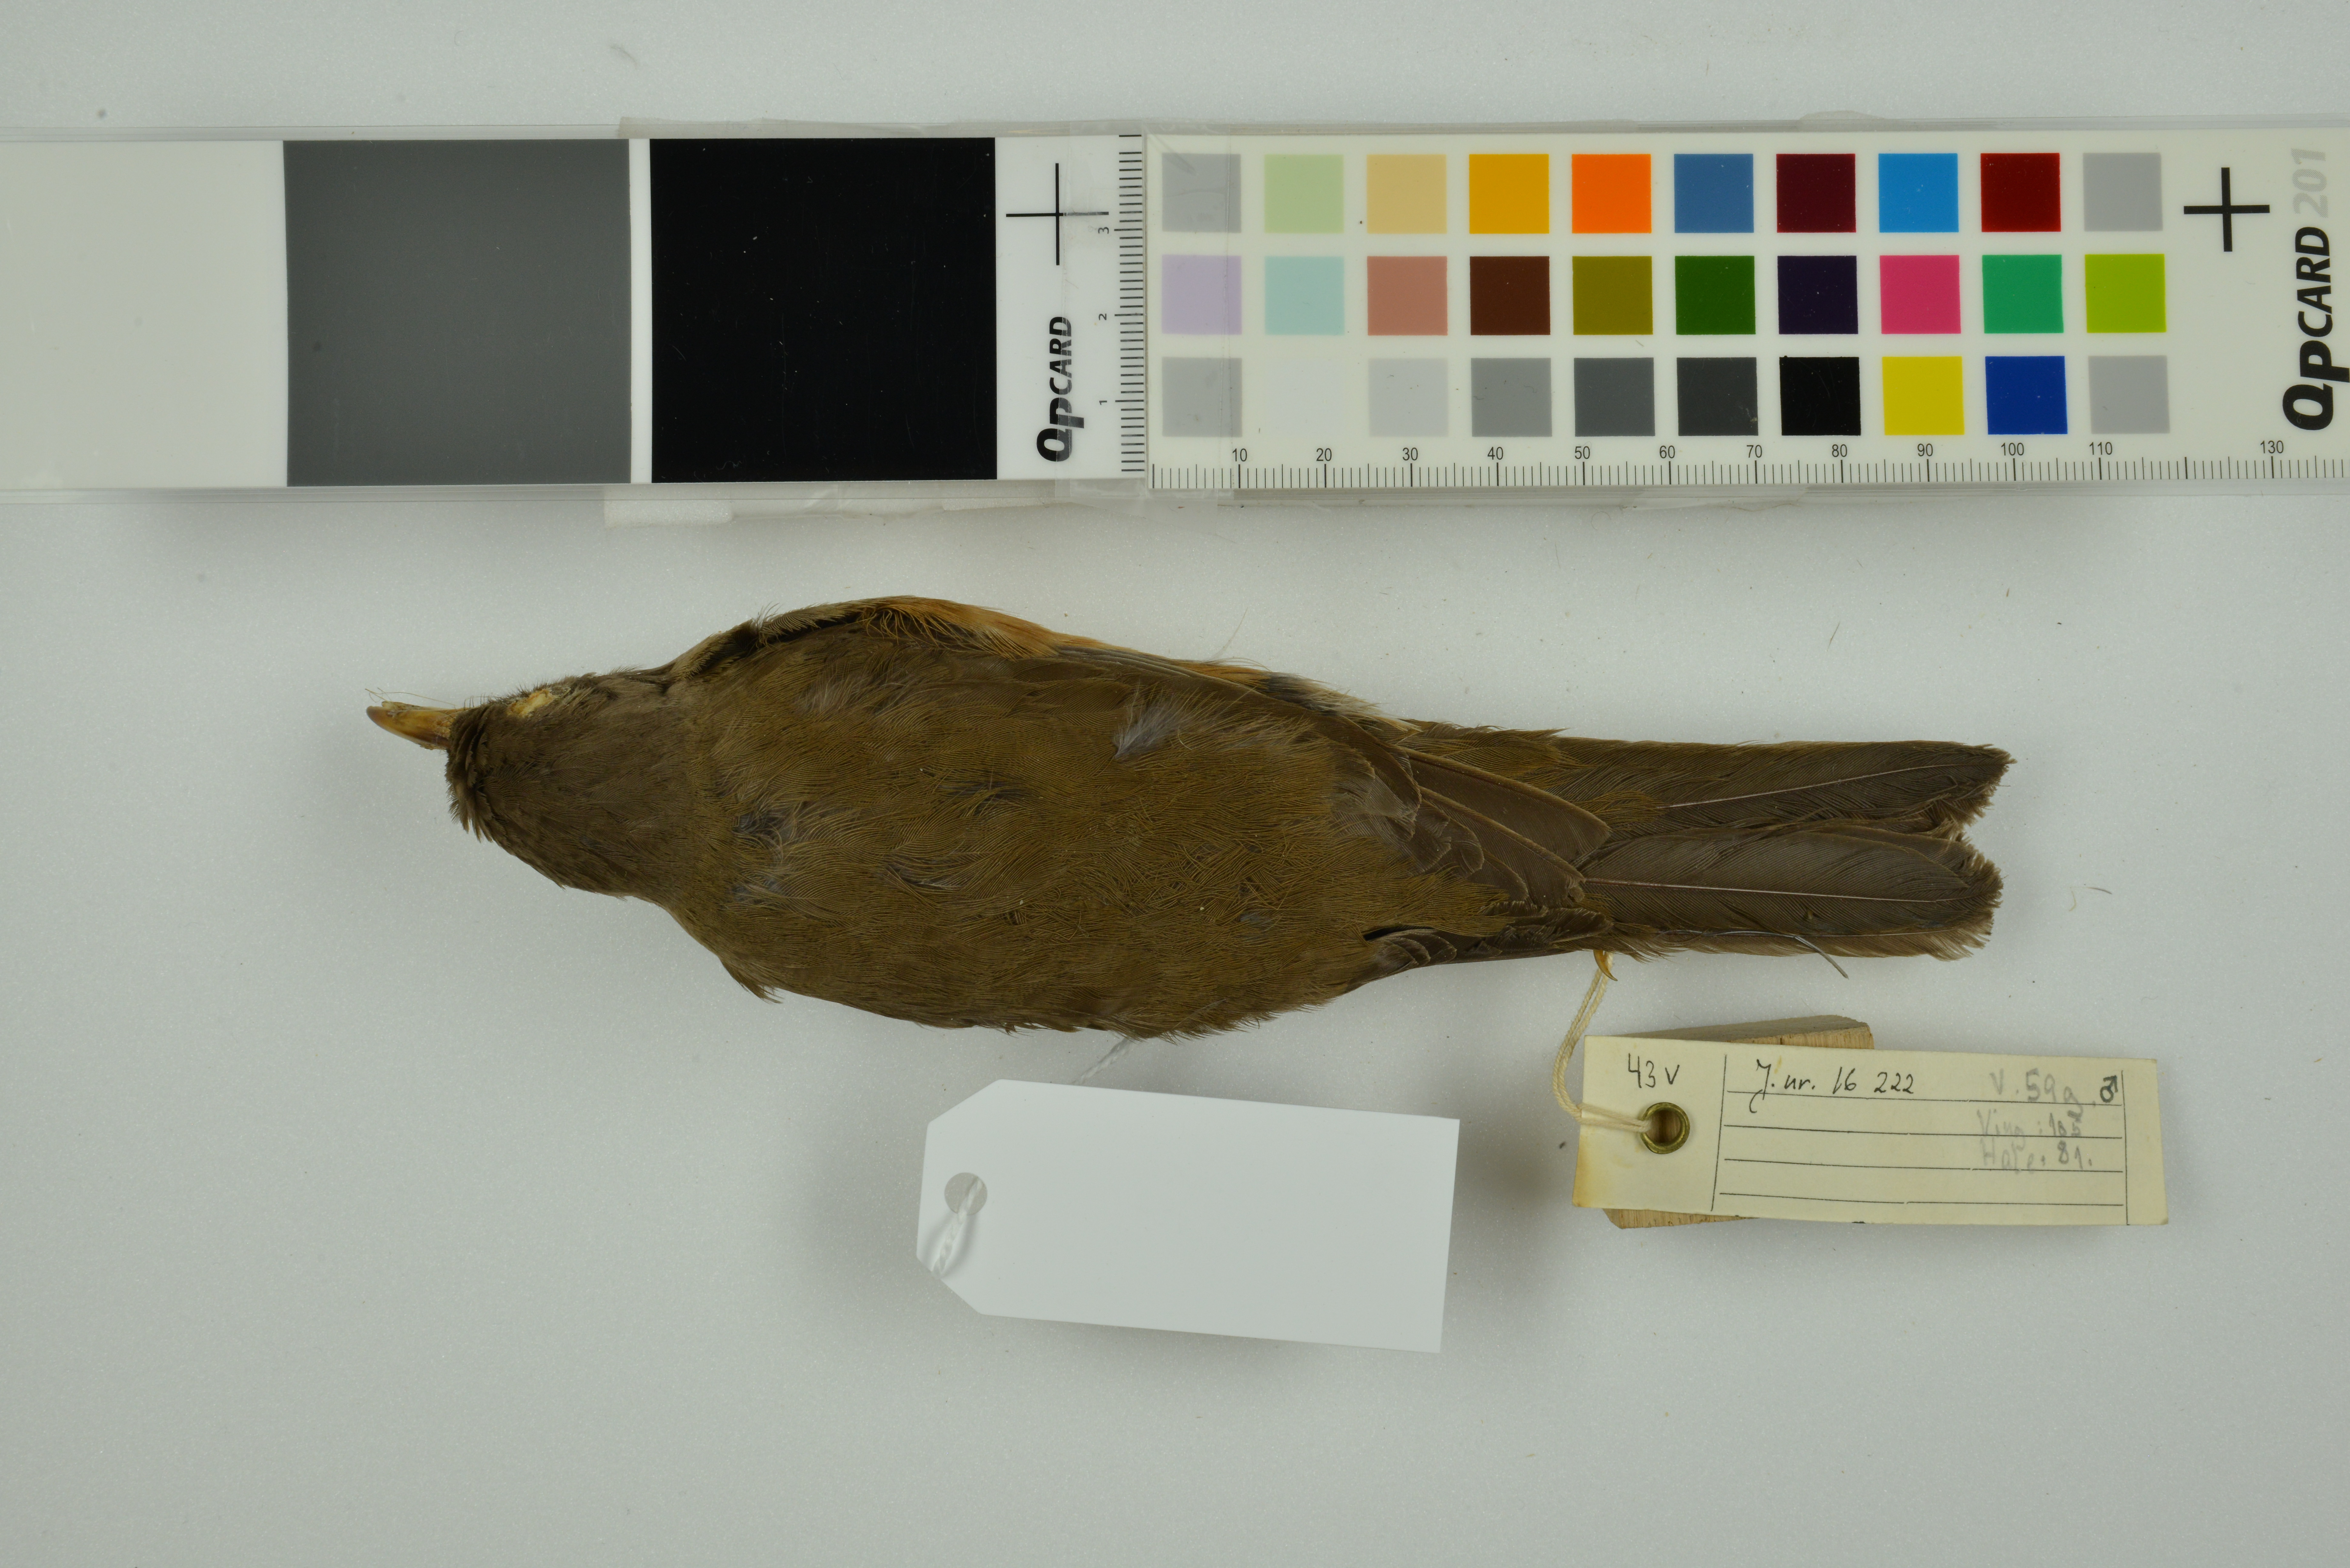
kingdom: Animalia
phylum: Chordata
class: Aves
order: Passeriformes
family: Turdidae
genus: Turdus
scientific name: Turdus poliocephalus
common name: Island thrush
